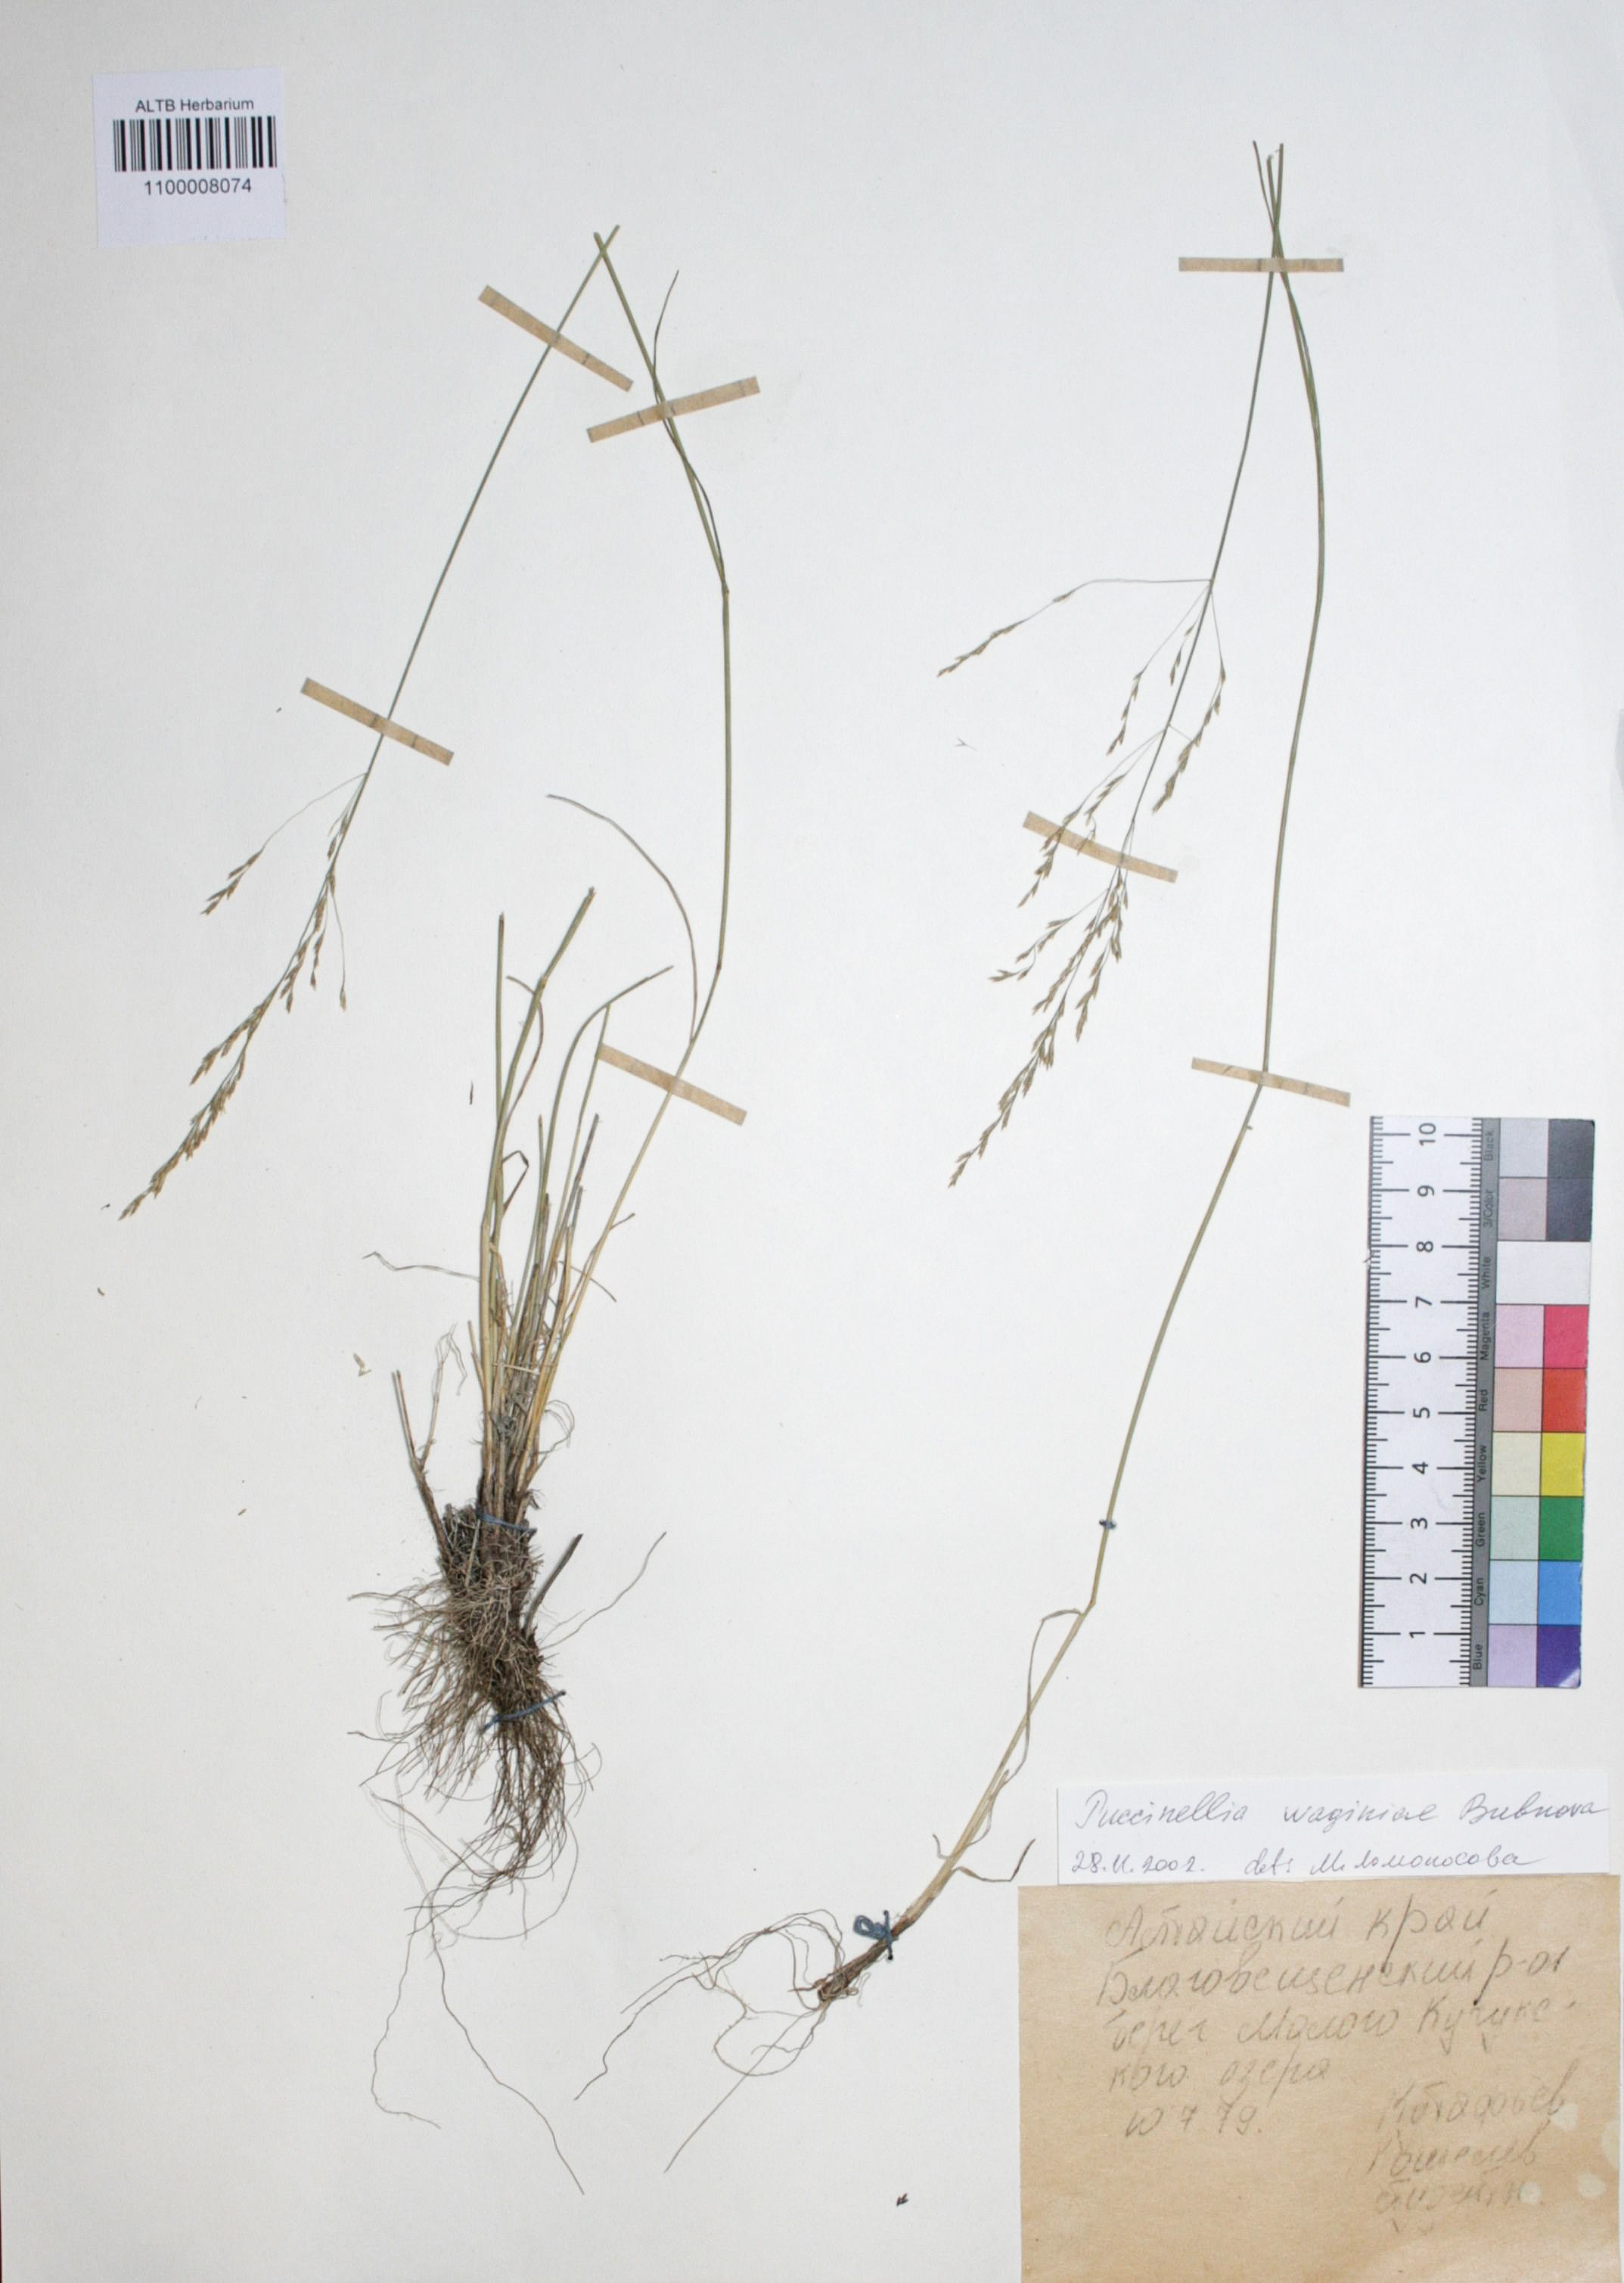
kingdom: Plantae
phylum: Tracheophyta
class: Liliopsida
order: Poales
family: Poaceae
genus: Puccinellia
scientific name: Puccinellia gigantea
